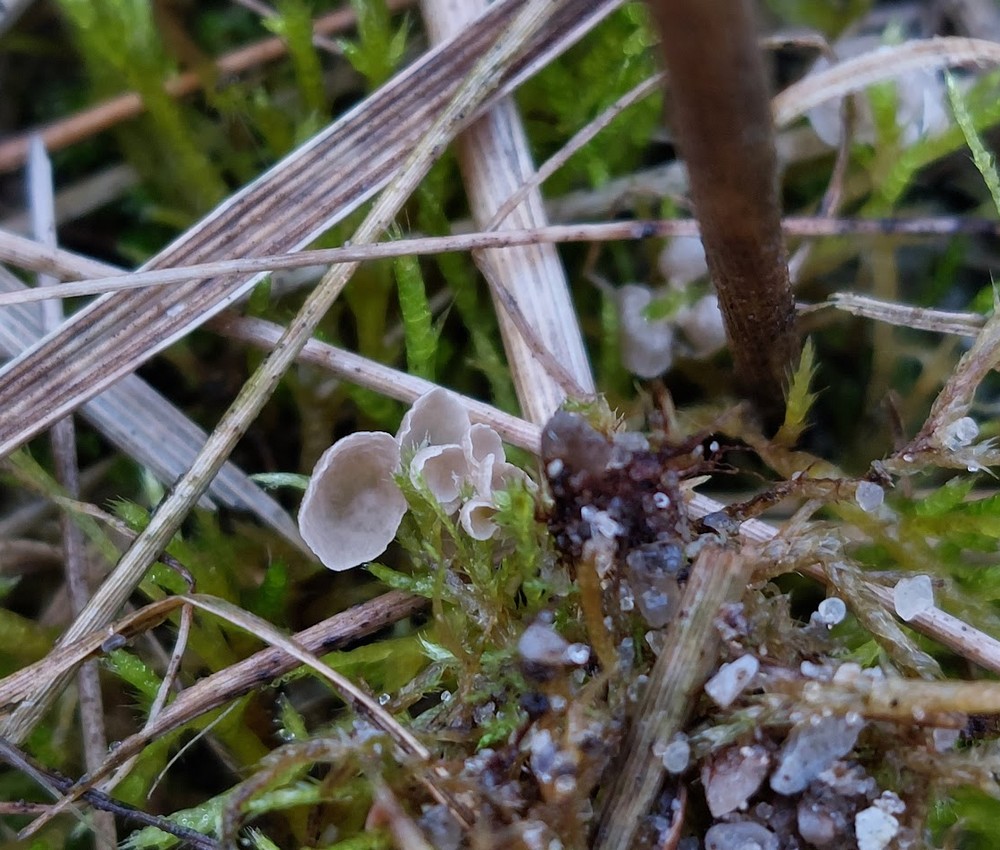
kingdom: Fungi
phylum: Basidiomycota
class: Agaricomycetes
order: Agaricales
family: Hygrophoraceae
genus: Arrhenia
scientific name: Arrhenia retiruga
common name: lille fontænehat
